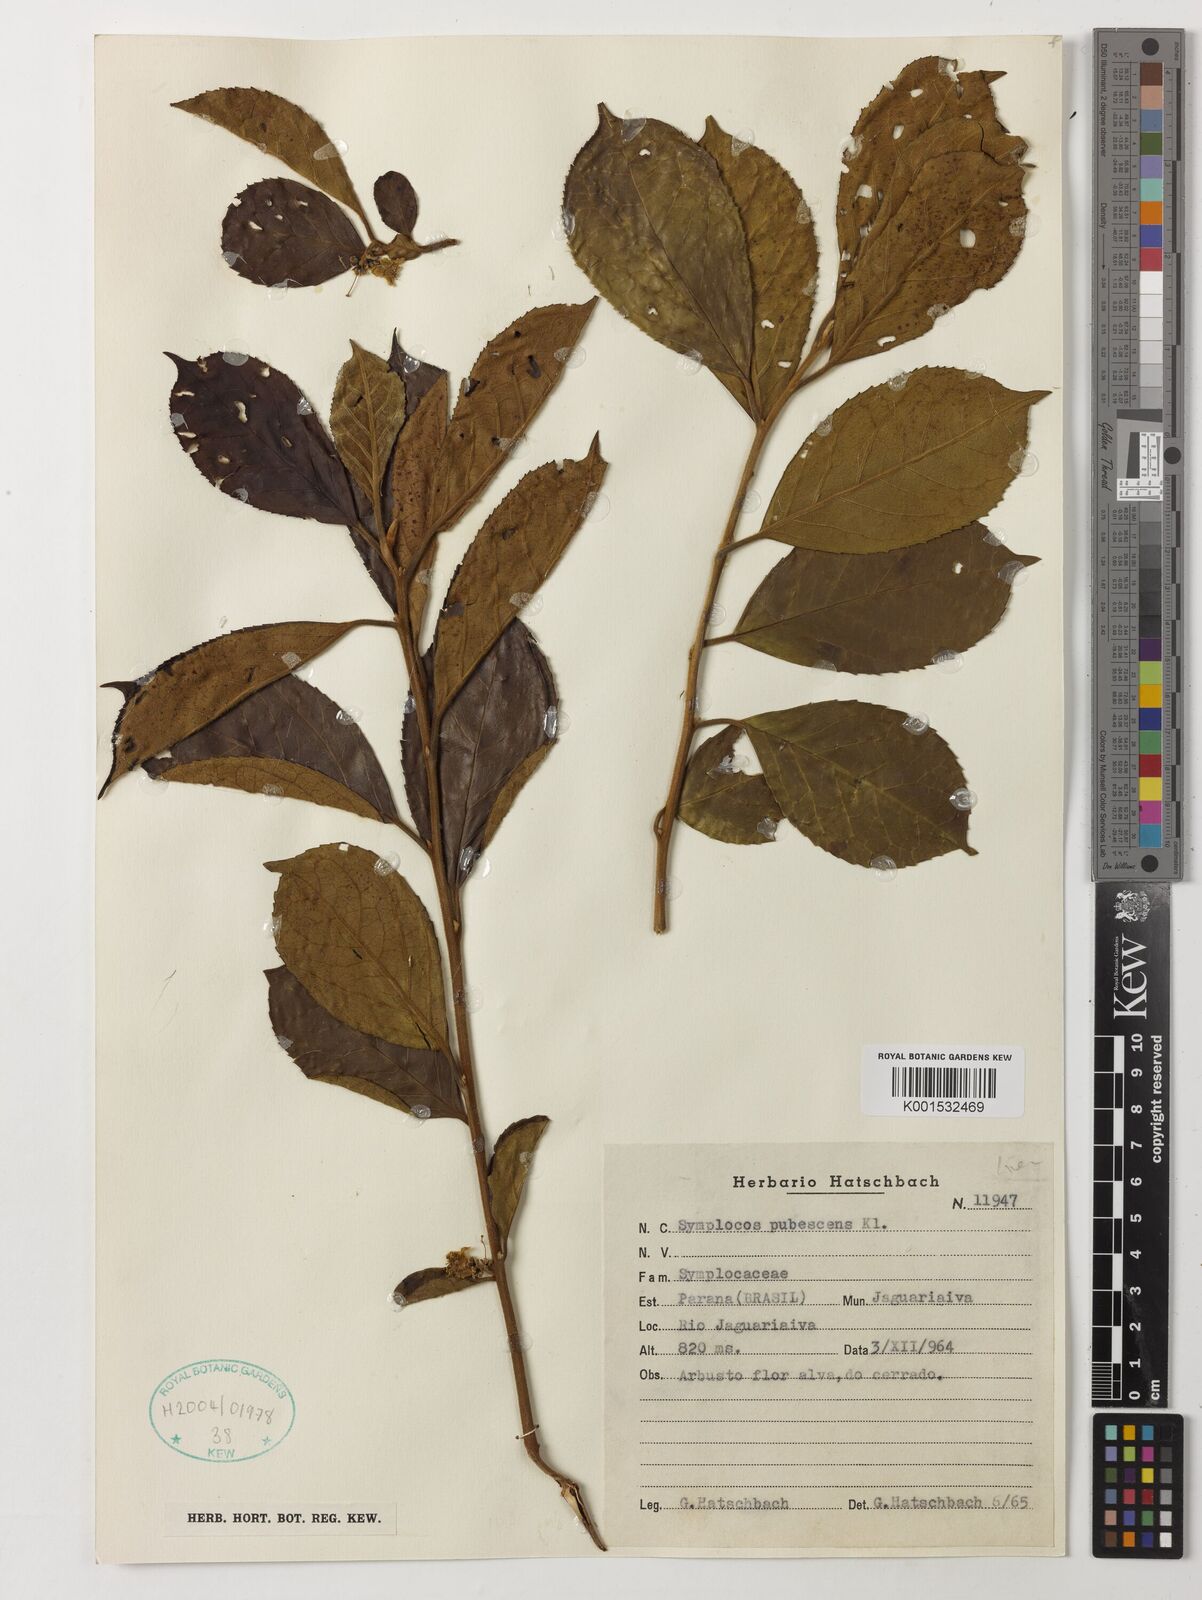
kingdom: Plantae
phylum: Tracheophyta
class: Magnoliopsida
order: Ericales
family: Symplocaceae
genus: Symplocos
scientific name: Symplocos pubescens
